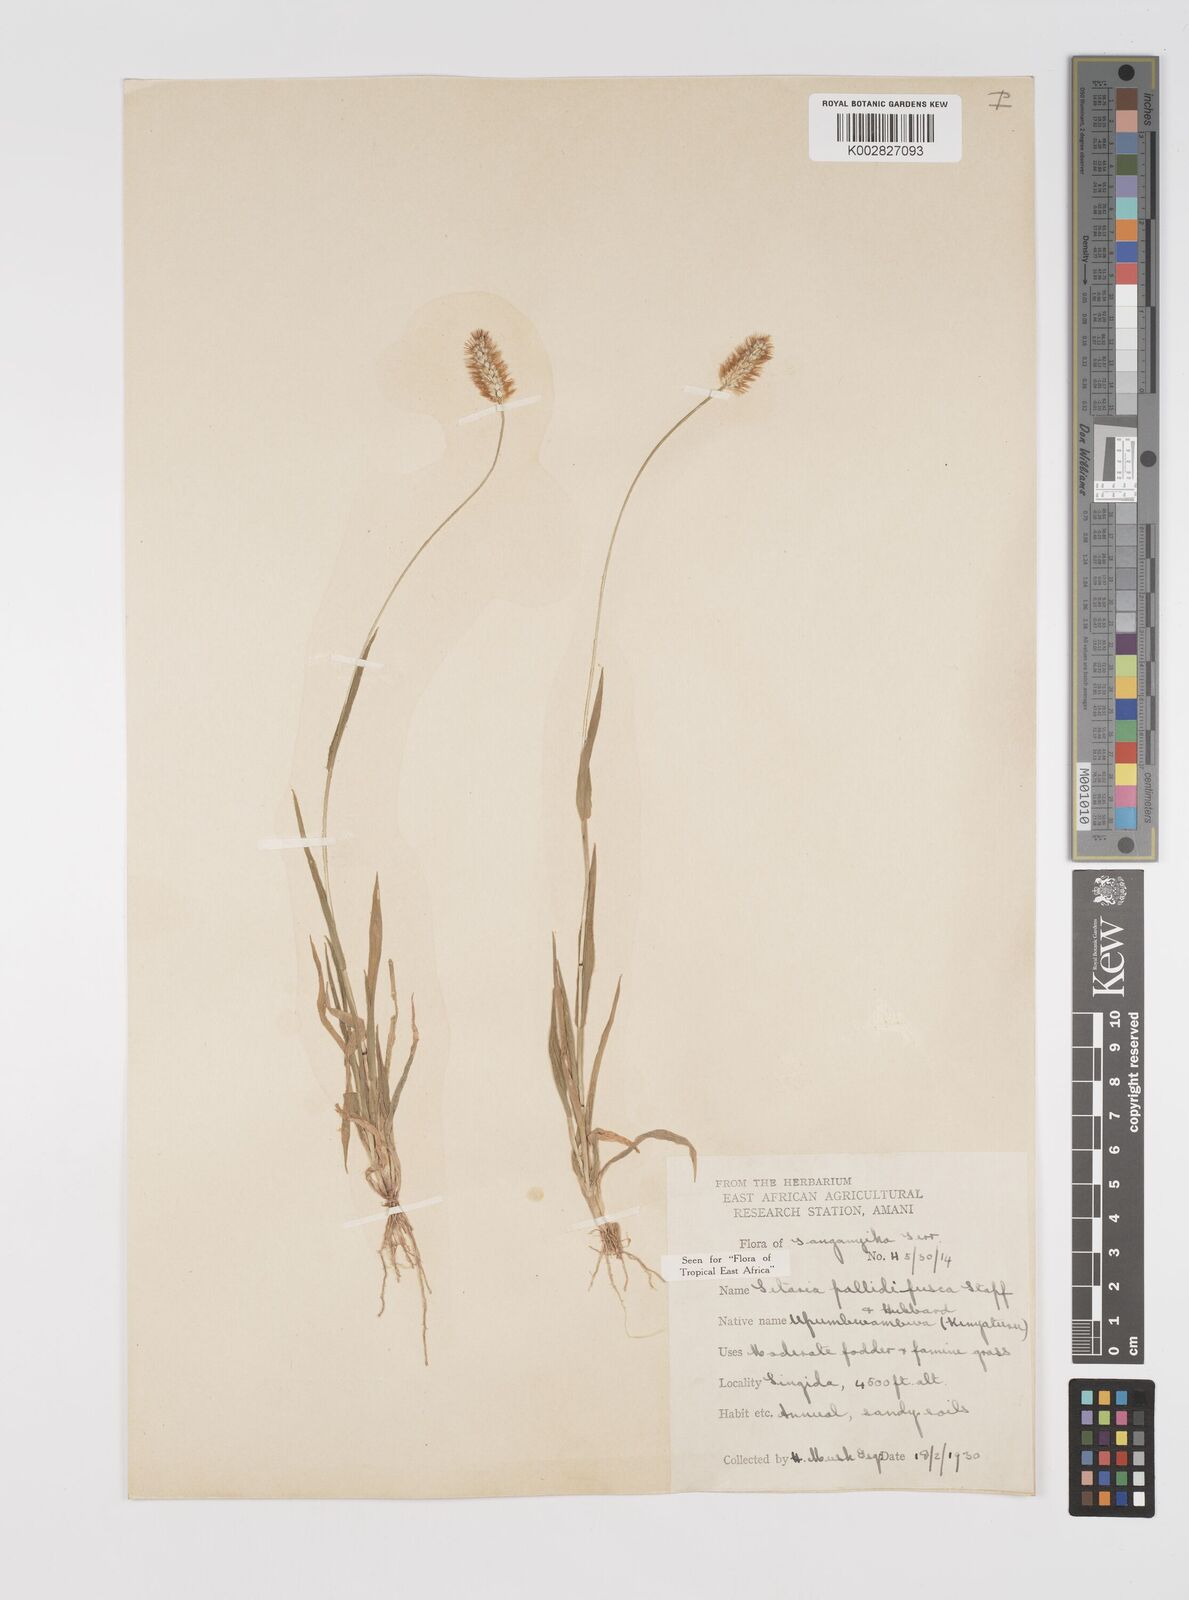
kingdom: Plantae
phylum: Tracheophyta
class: Liliopsida
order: Poales
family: Poaceae
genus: Setaria
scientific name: Setaria pumila
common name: Yellow bristle-grass
